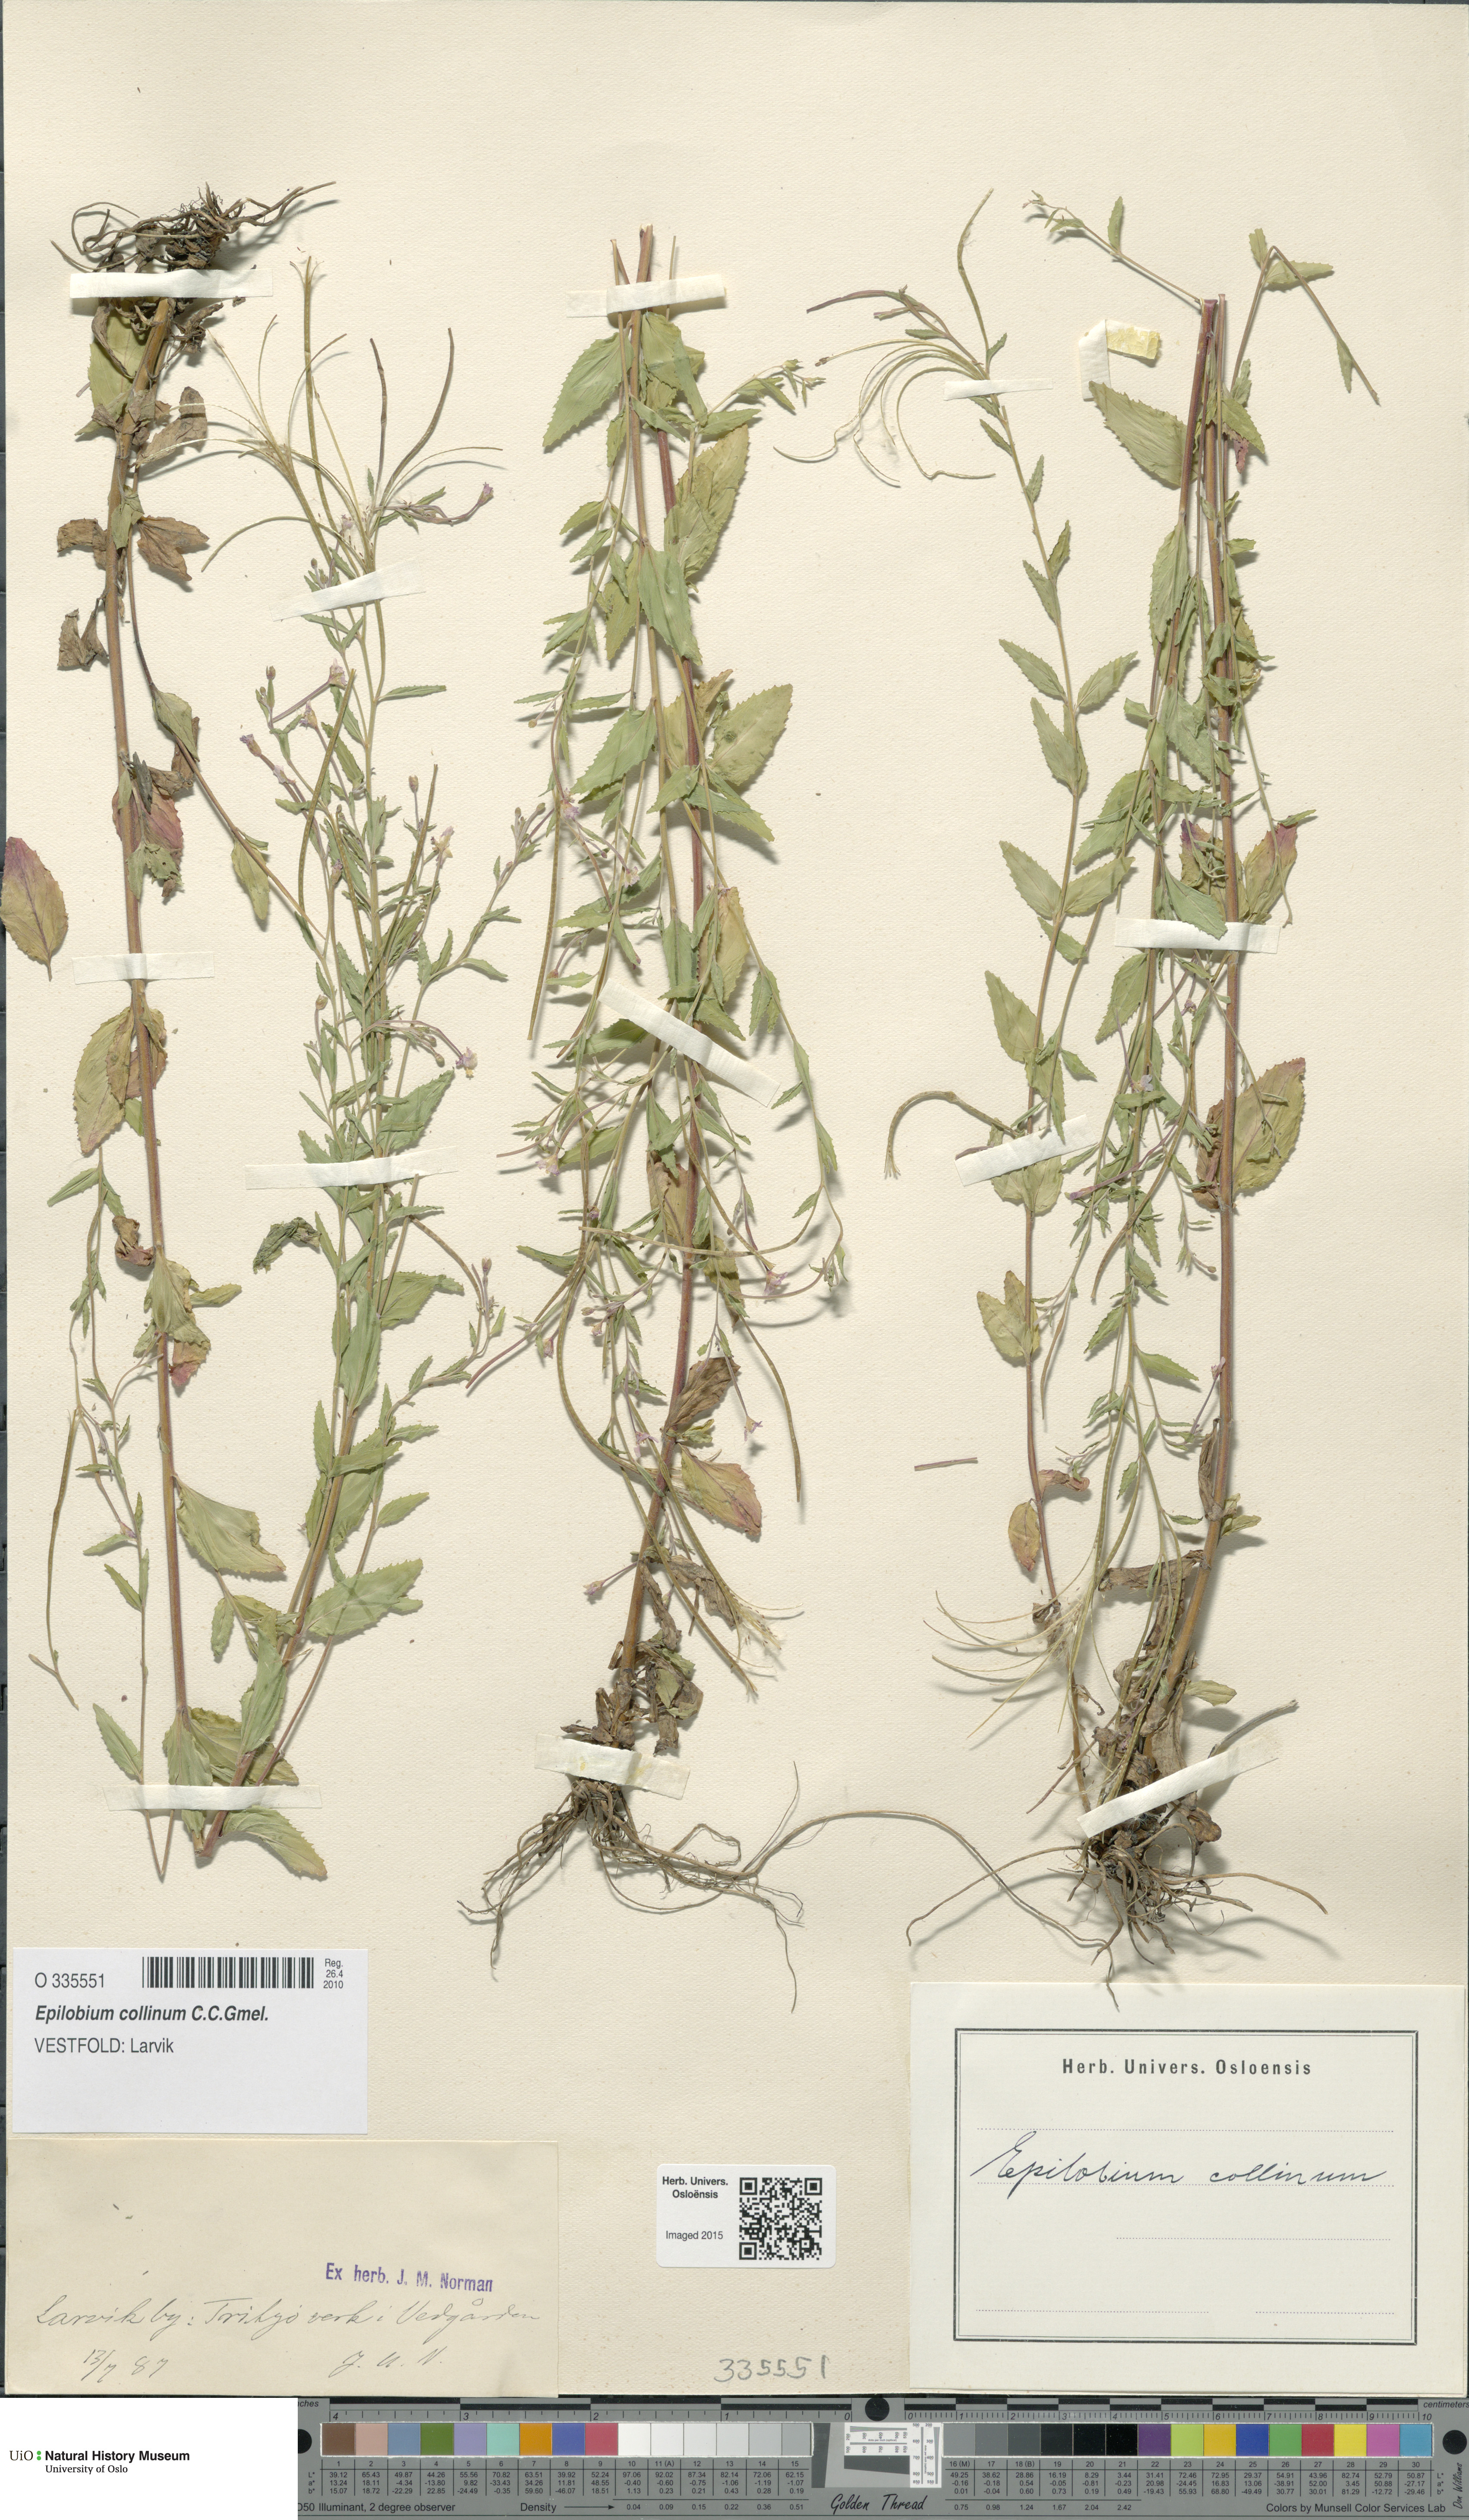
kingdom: Plantae
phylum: Tracheophyta
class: Magnoliopsida
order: Myrtales
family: Onagraceae
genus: Epilobium
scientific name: Epilobium collinum
